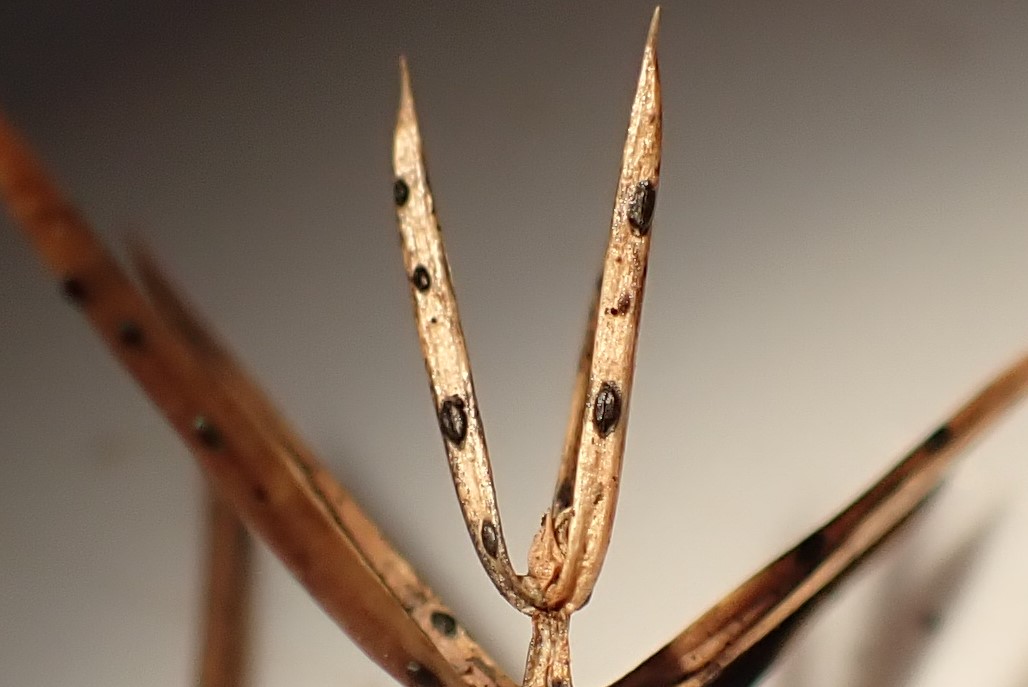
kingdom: Fungi
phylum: Ascomycota
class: Leotiomycetes
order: Rhytismatales
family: Rhytismataceae
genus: Lophodermium
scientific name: Lophodermium juniperinum
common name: ene-fureplet
